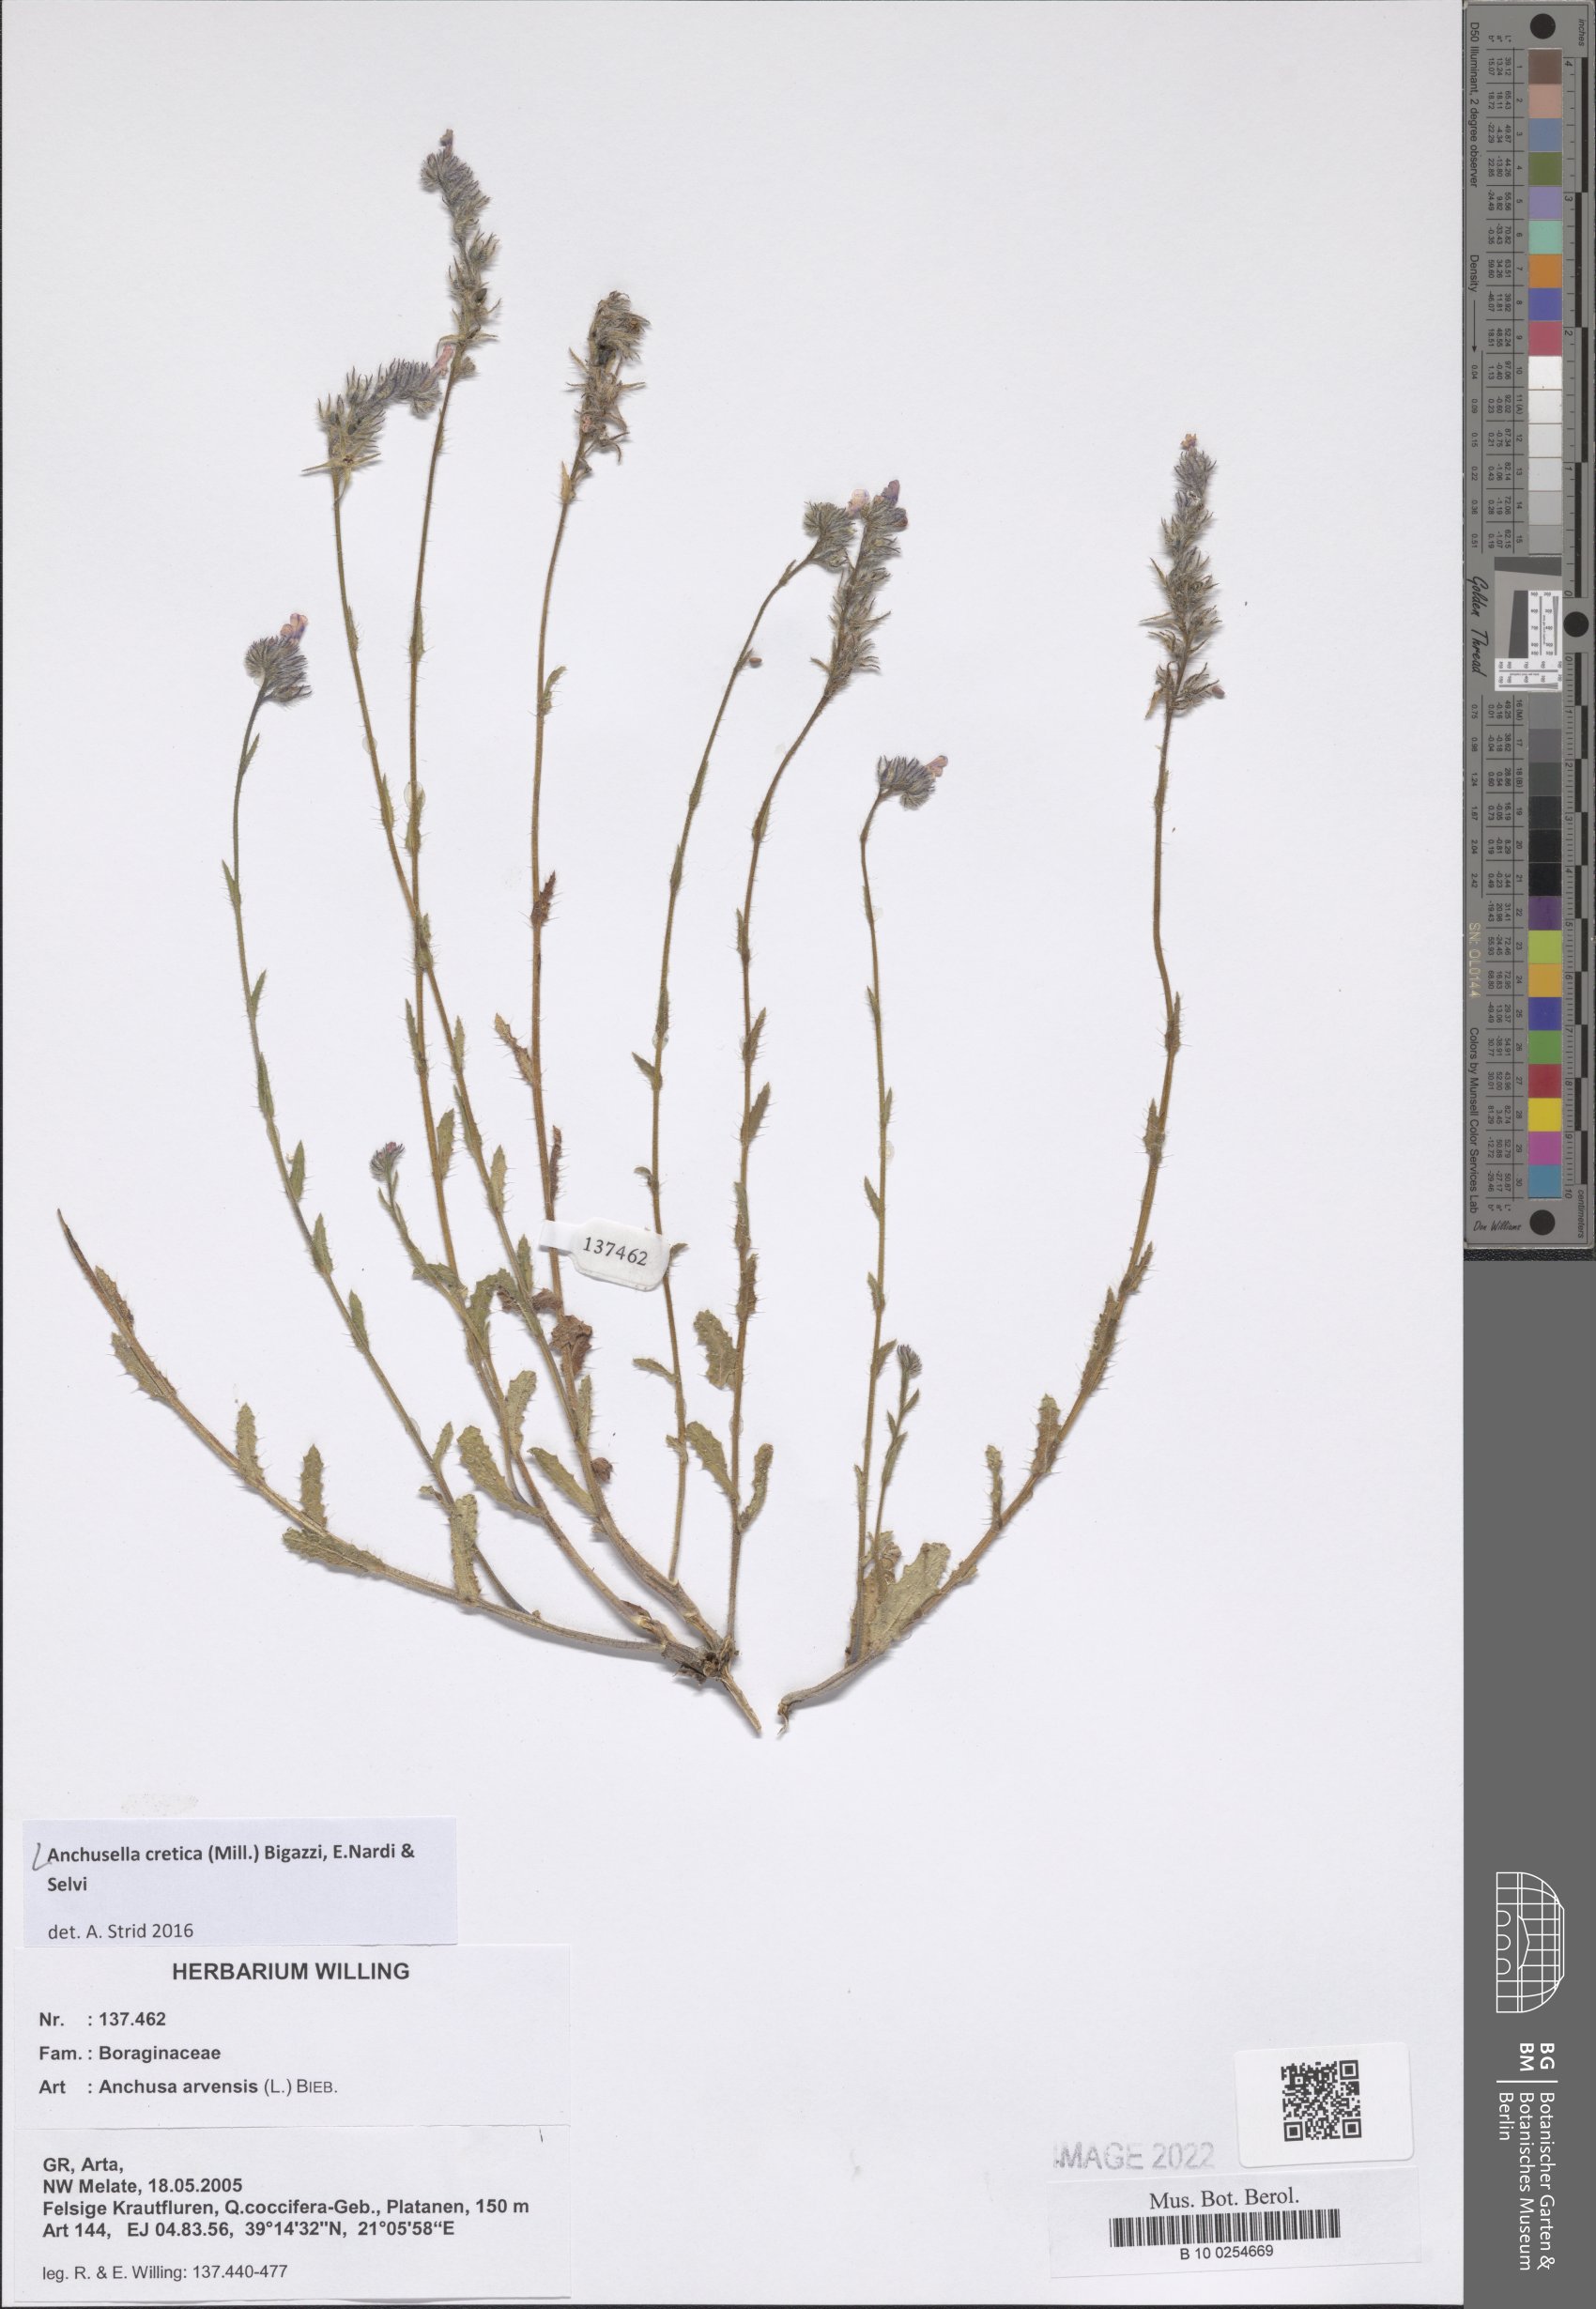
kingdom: Plantae
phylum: Tracheophyta
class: Magnoliopsida
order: Boraginales
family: Boraginaceae
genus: Anchusella
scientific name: Anchusella cretica
